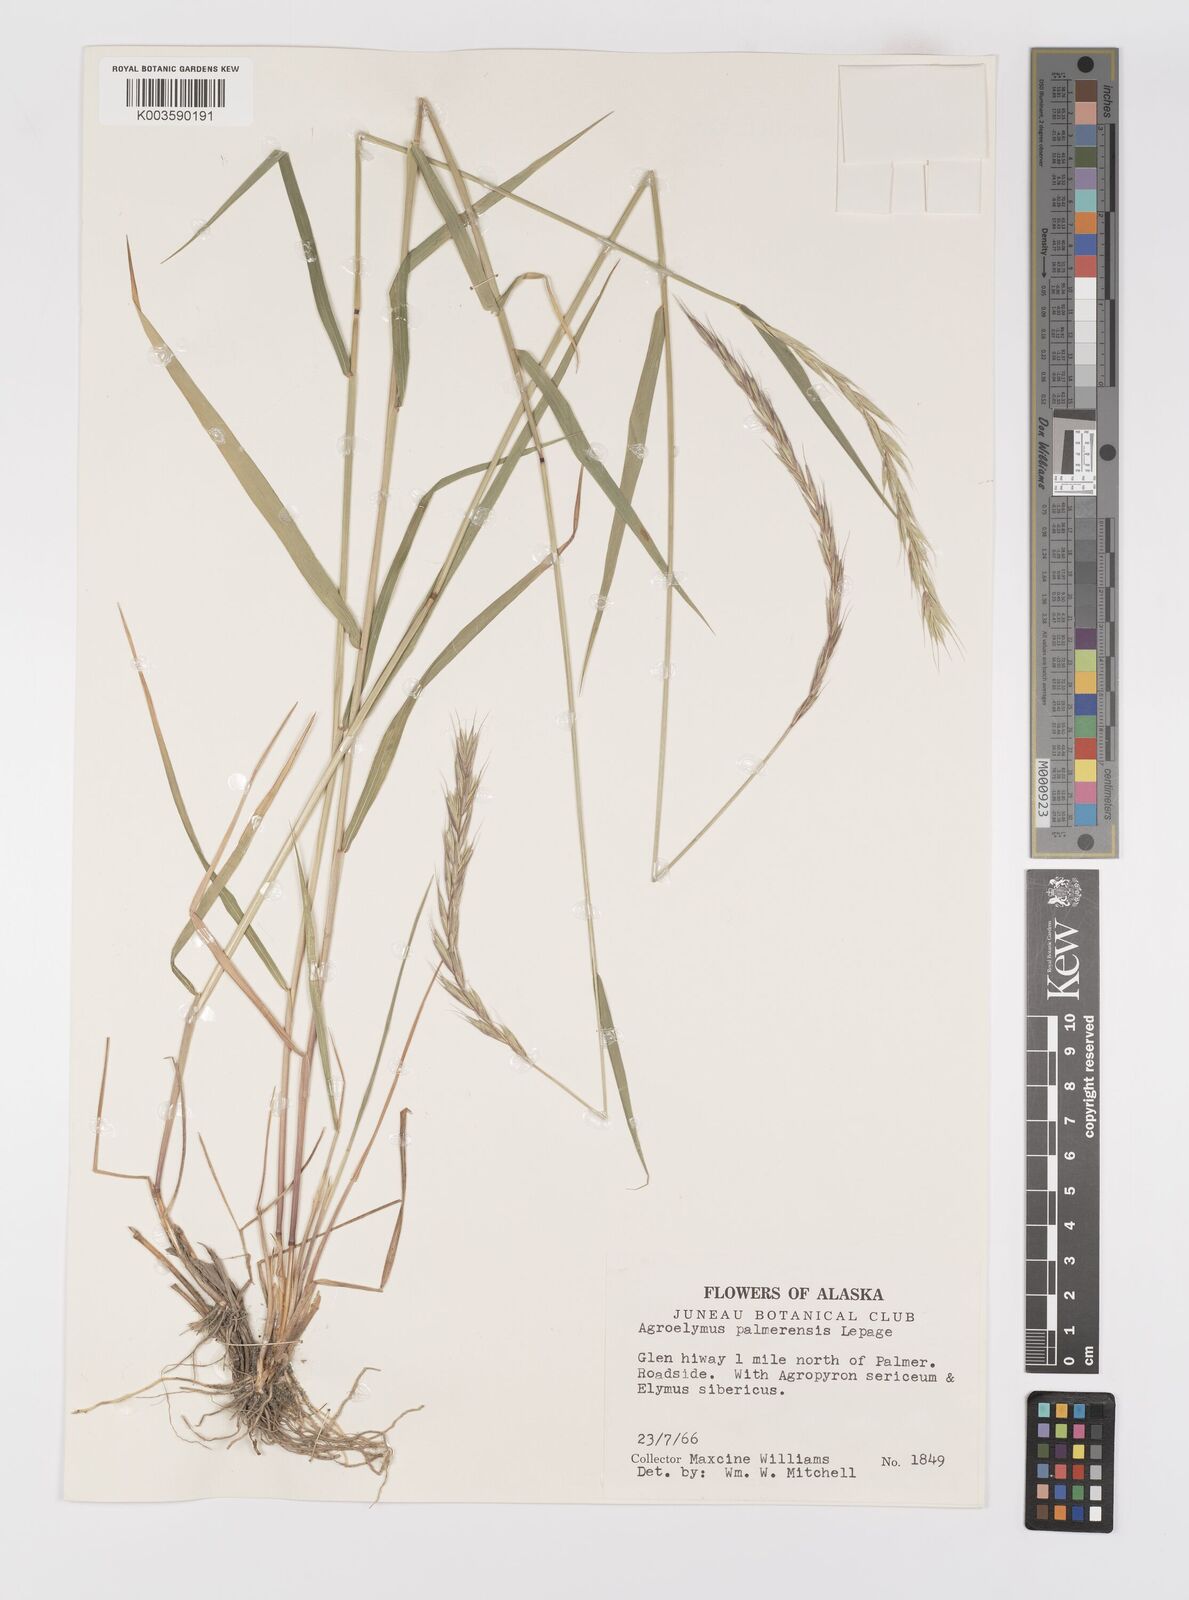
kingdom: Plantae
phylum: Tracheophyta
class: Liliopsida
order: Poales
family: Poaceae
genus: Elymus
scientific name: Elymus sibiricus
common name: Siberian wildrye
